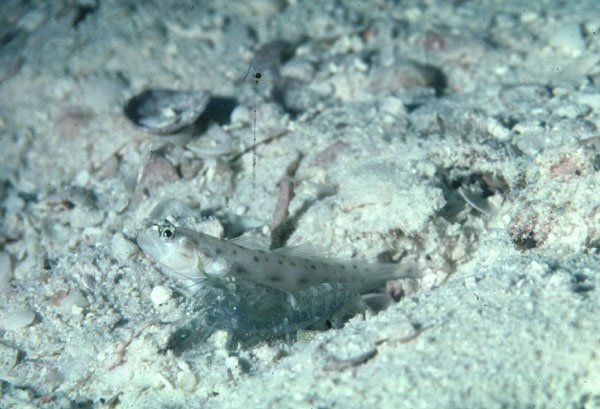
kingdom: Animalia
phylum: Chordata
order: Perciformes
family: Gobiidae
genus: Vanderhorstia
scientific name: Vanderhorstia ambanoro
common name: Ambanoro goby
